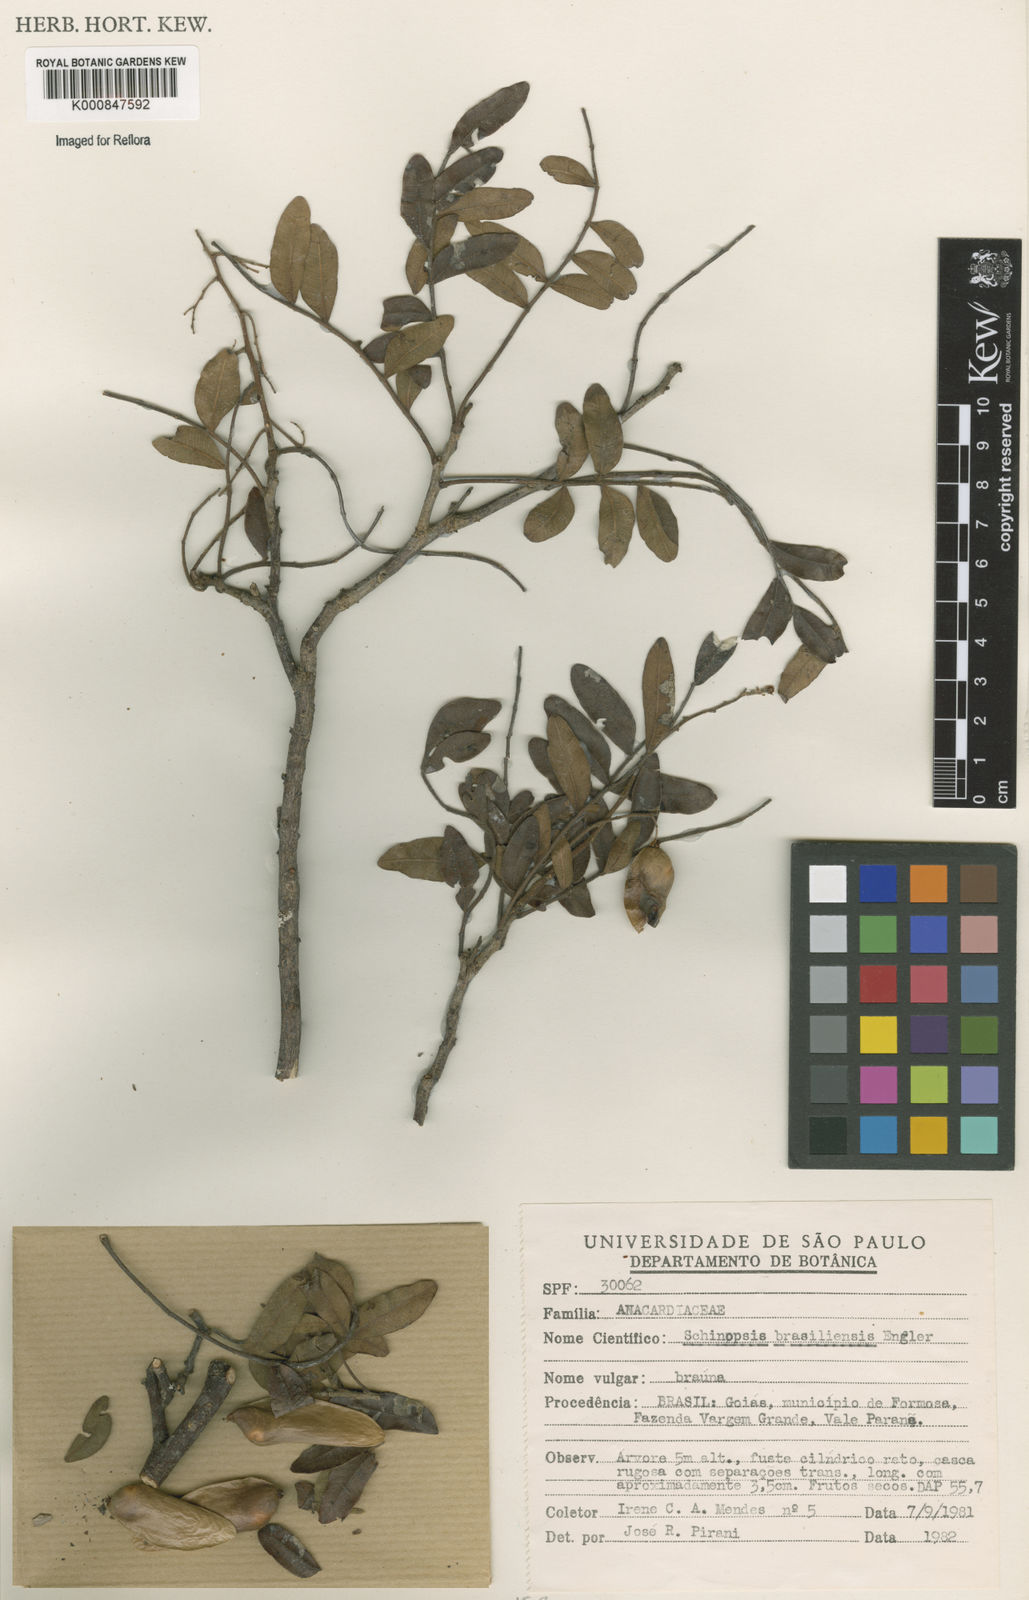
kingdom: Plantae
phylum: Tracheophyta
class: Magnoliopsida
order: Sapindales
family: Anacardiaceae
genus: Schinopsis
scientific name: Schinopsis brasiliensis
